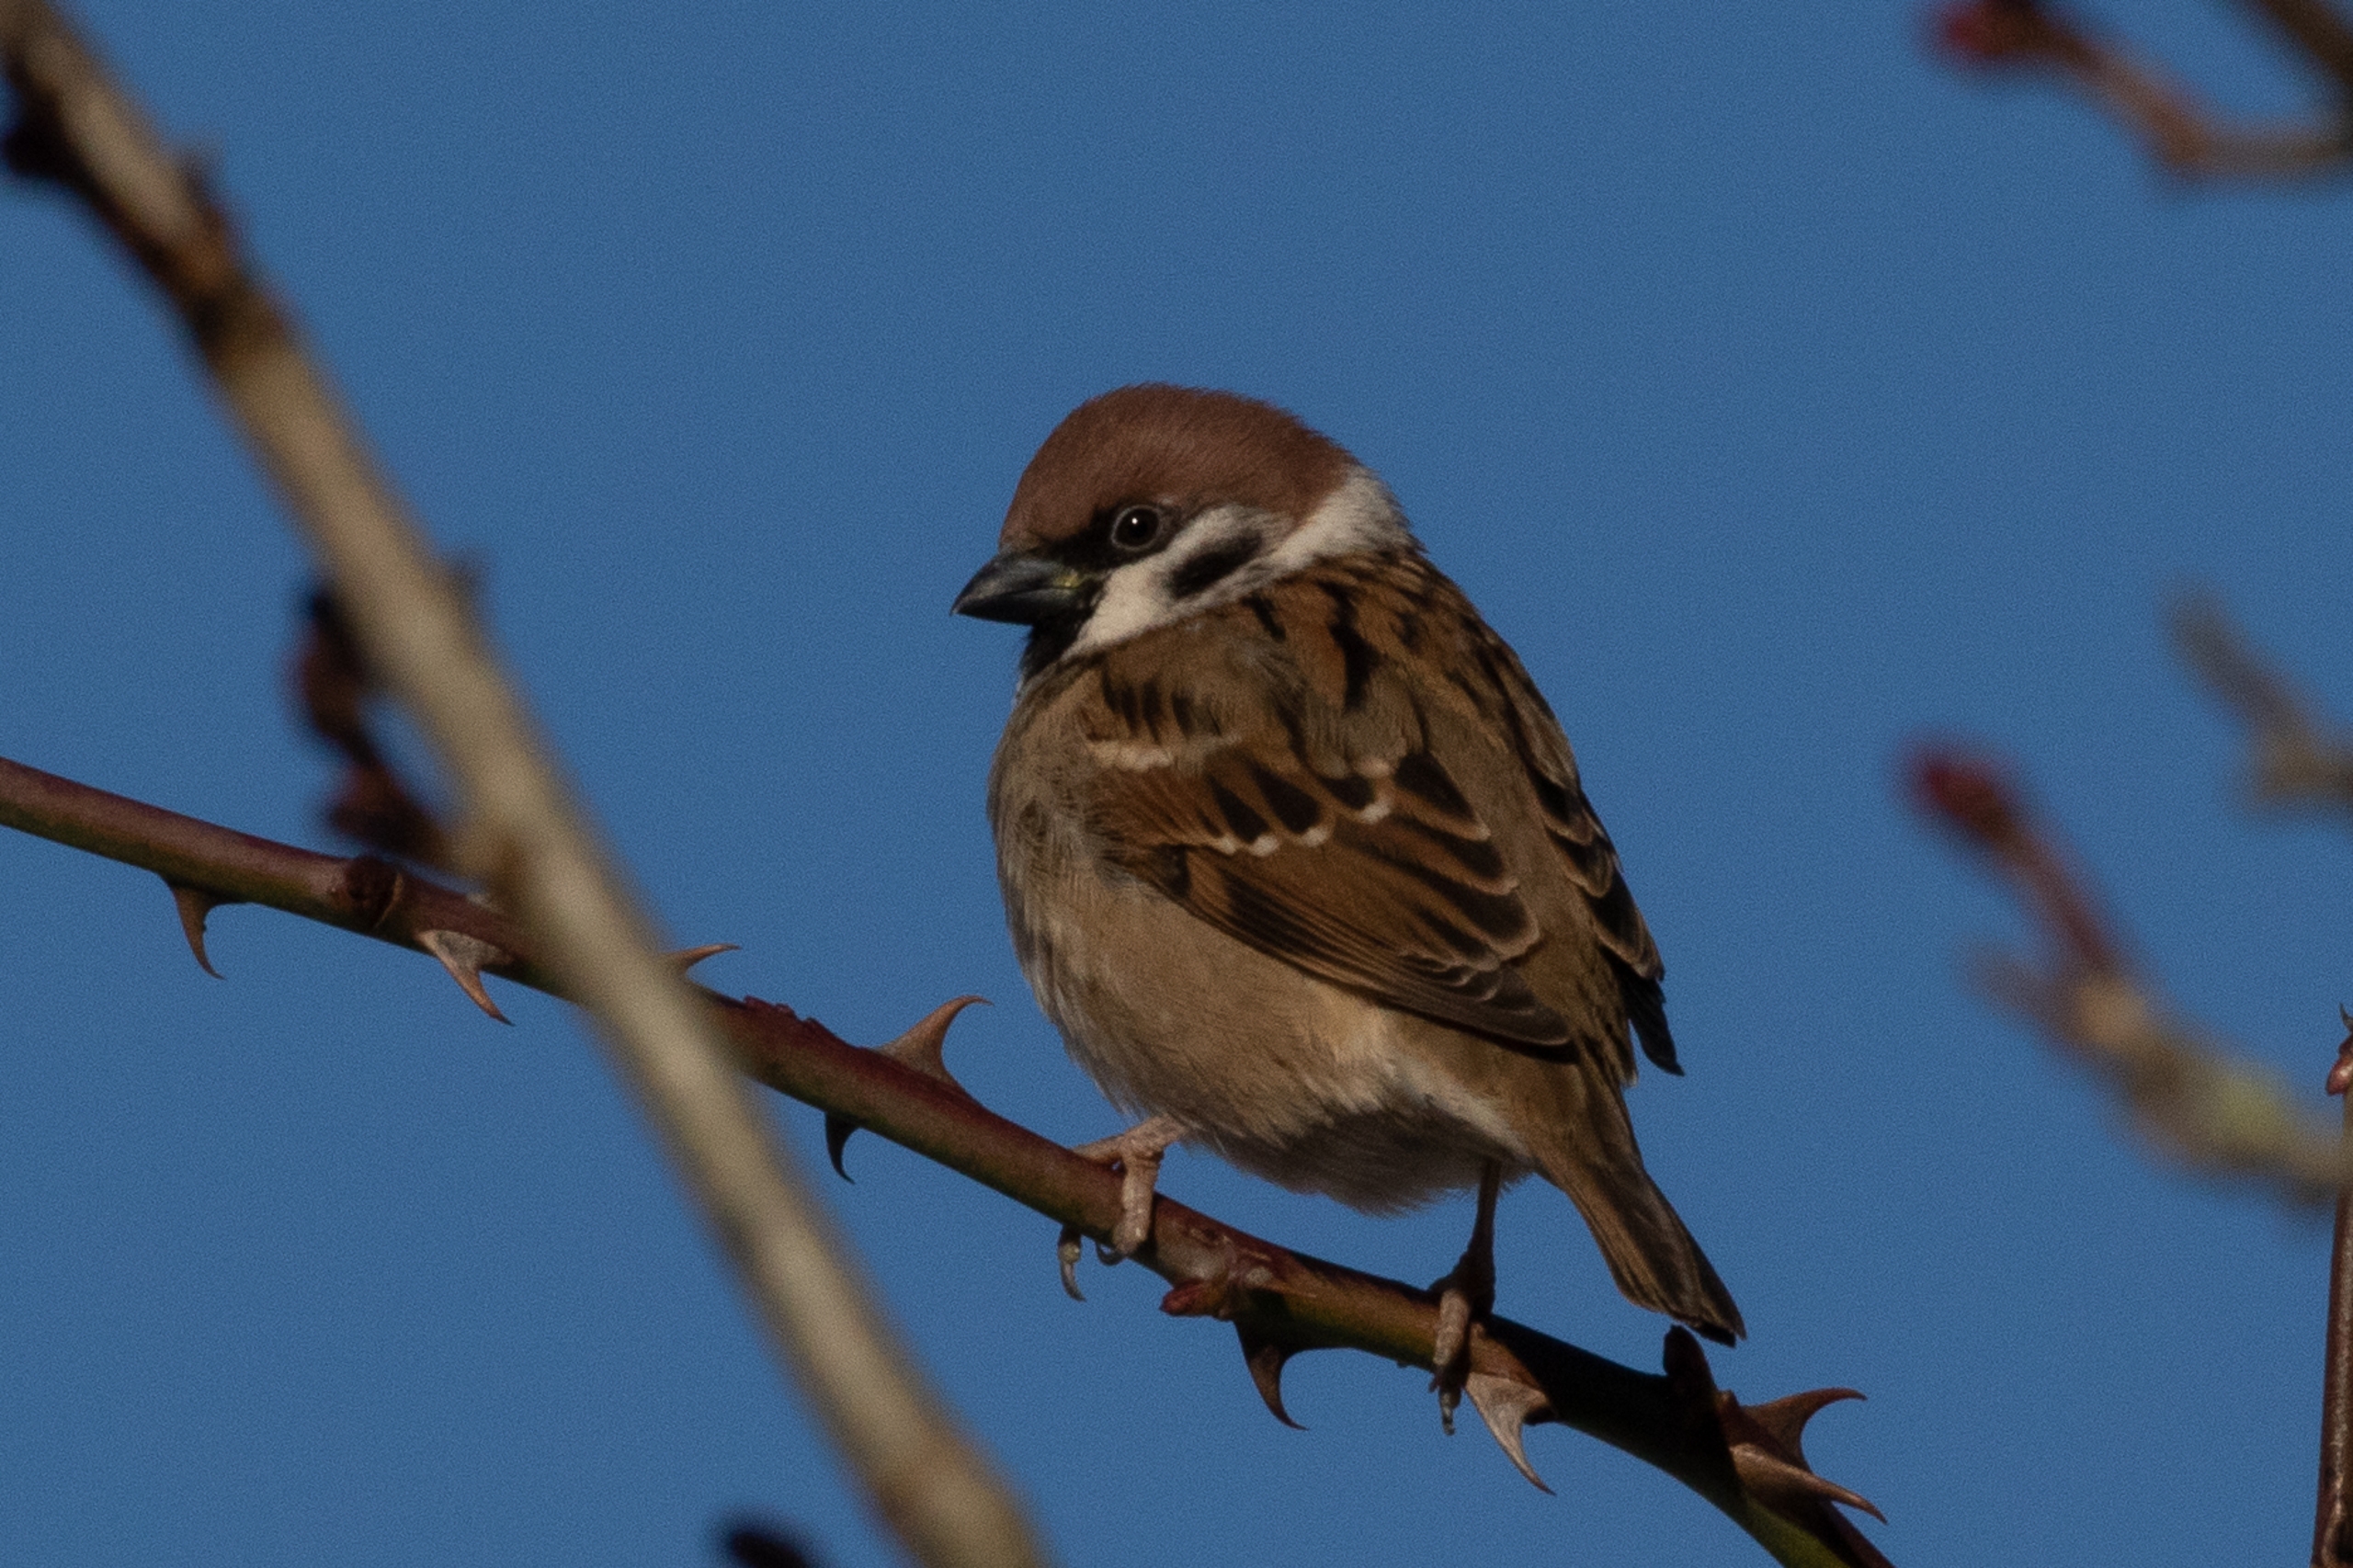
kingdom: Animalia
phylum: Chordata
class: Aves
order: Passeriformes
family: Passeridae
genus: Passer
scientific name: Passer montanus
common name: Skovspurv
